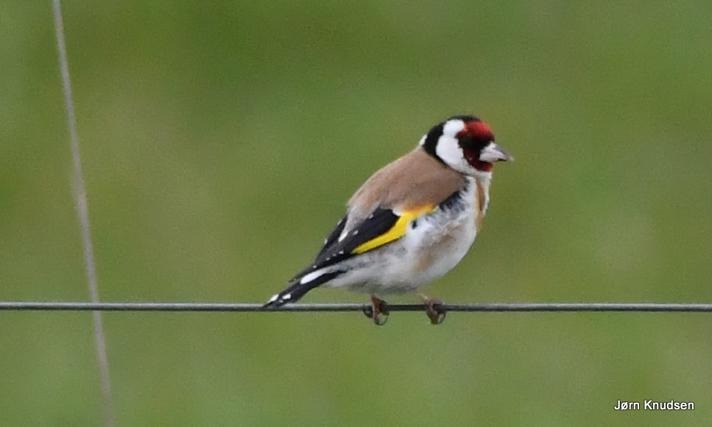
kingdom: Animalia
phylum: Chordata
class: Aves
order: Passeriformes
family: Fringillidae
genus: Carduelis
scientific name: Carduelis carduelis
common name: Stillits
